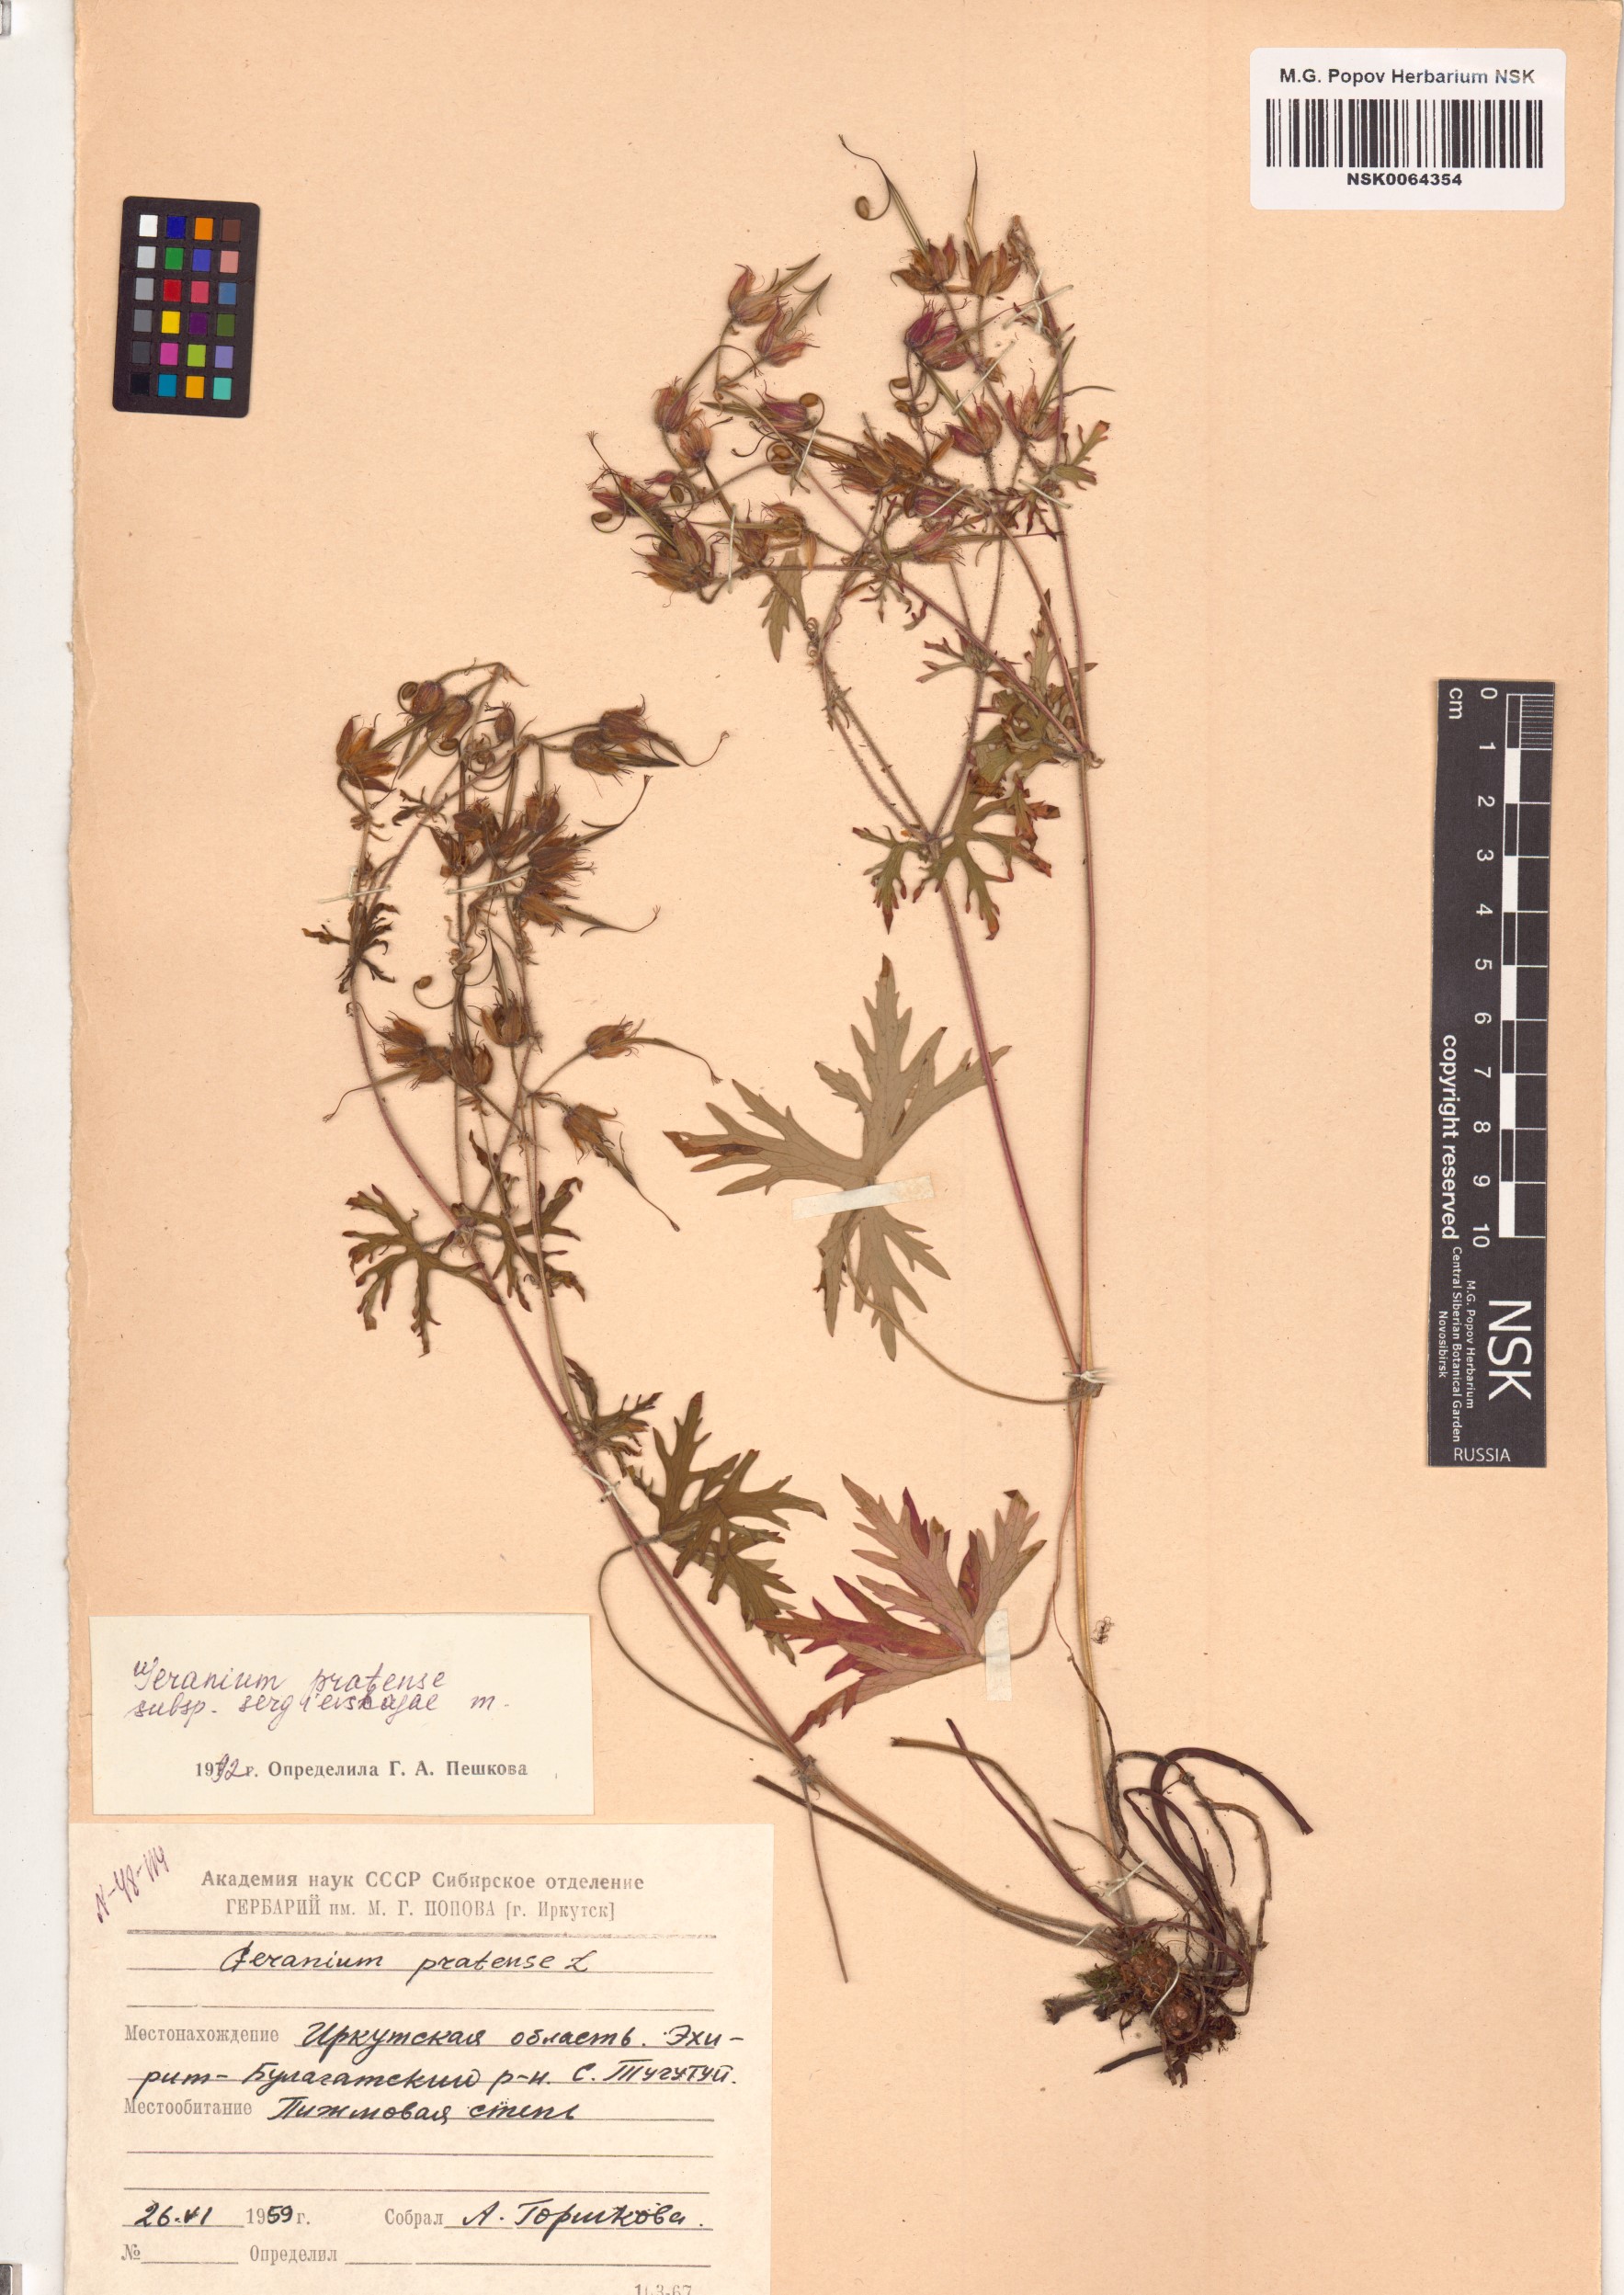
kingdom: Plantae
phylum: Tracheophyta
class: Magnoliopsida
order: Geraniales
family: Geraniaceae
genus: Geranium
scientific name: Geranium pratense
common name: Meadow crane's-bill
